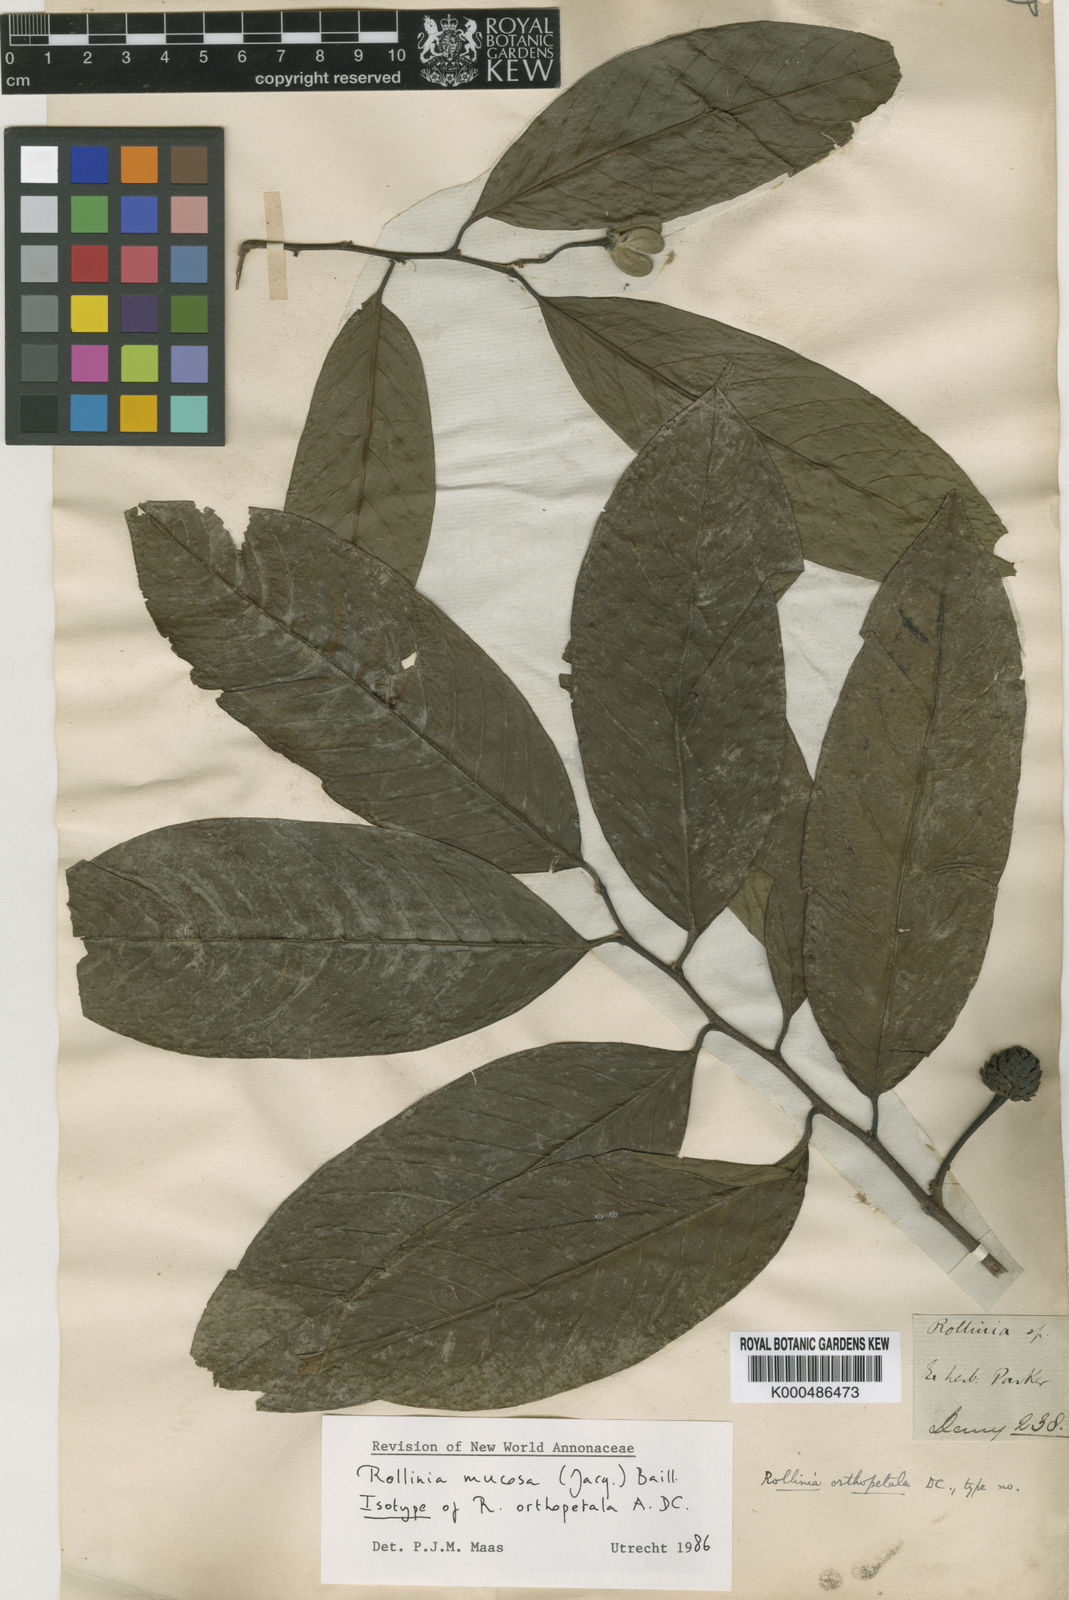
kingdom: Plantae
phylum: Tracheophyta
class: Magnoliopsida
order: Magnoliales
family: Annonaceae
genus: Annona
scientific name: Annona mucosa
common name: Sugar apple
